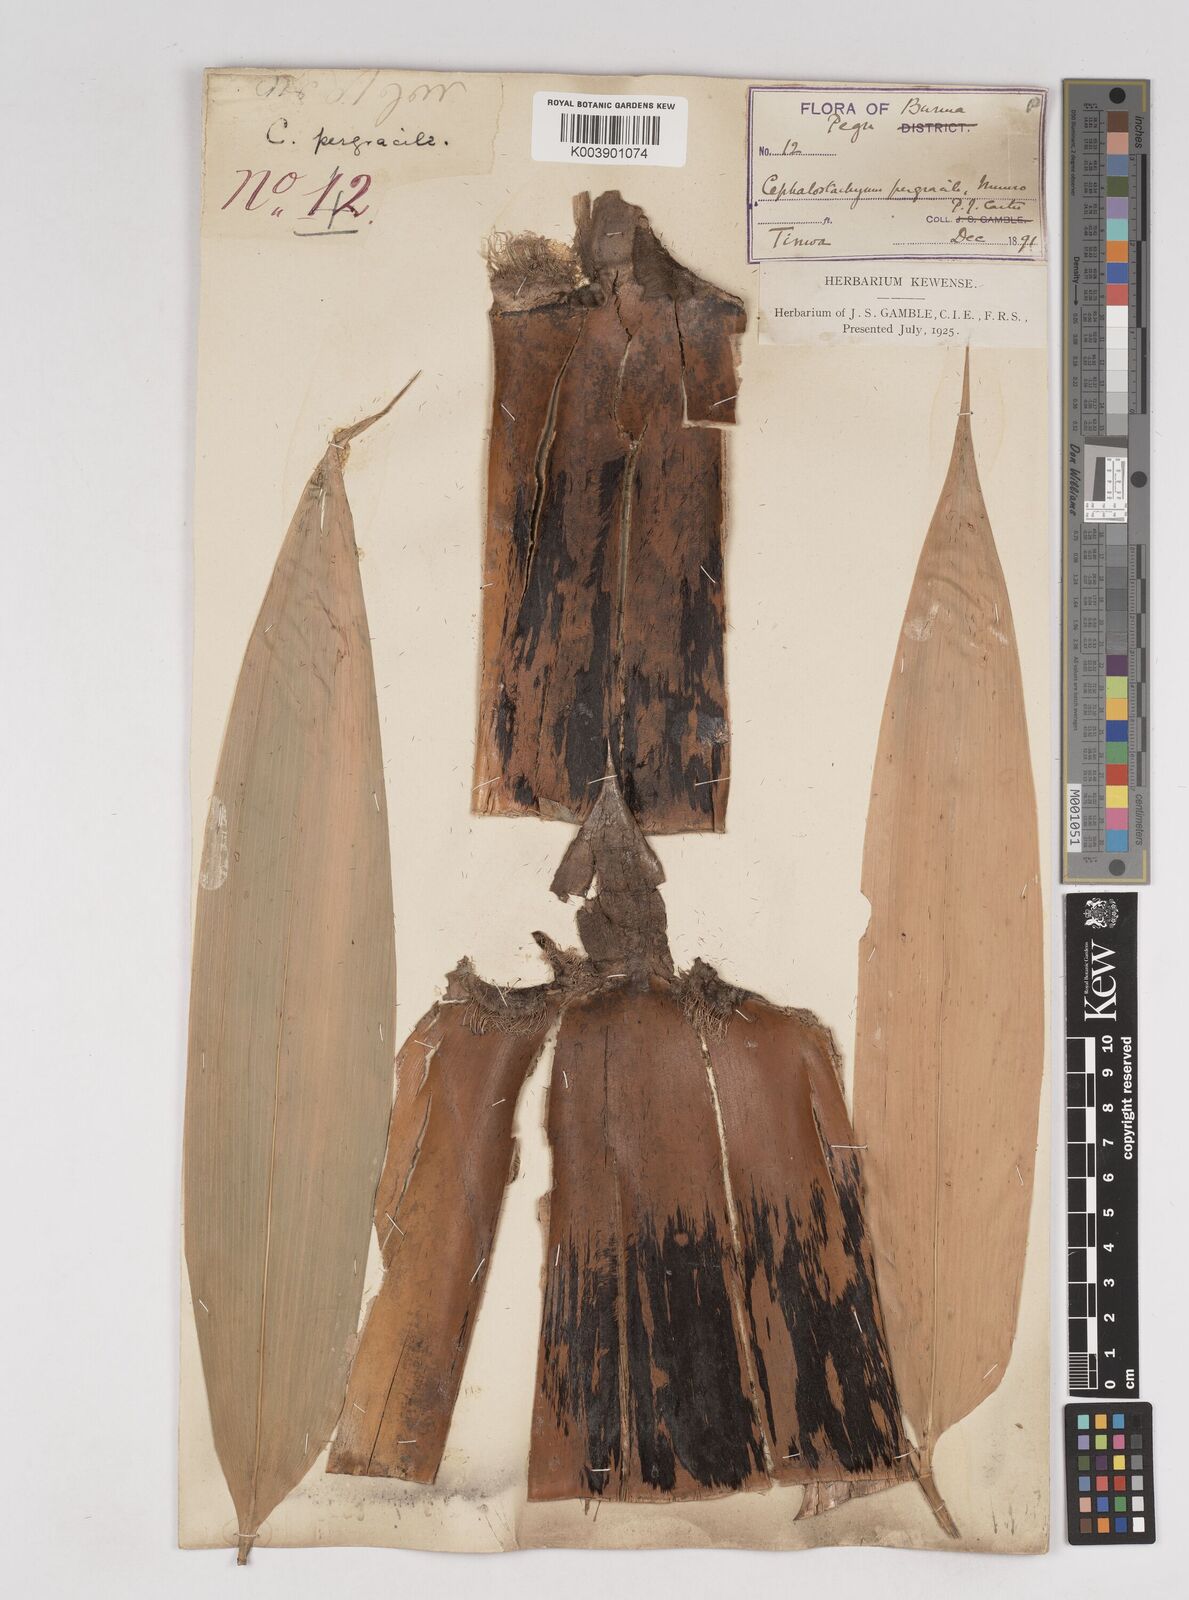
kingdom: Plantae
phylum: Tracheophyta
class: Liliopsida
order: Poales
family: Poaceae
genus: Schizostachyum
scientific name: Schizostachyum pergracile
